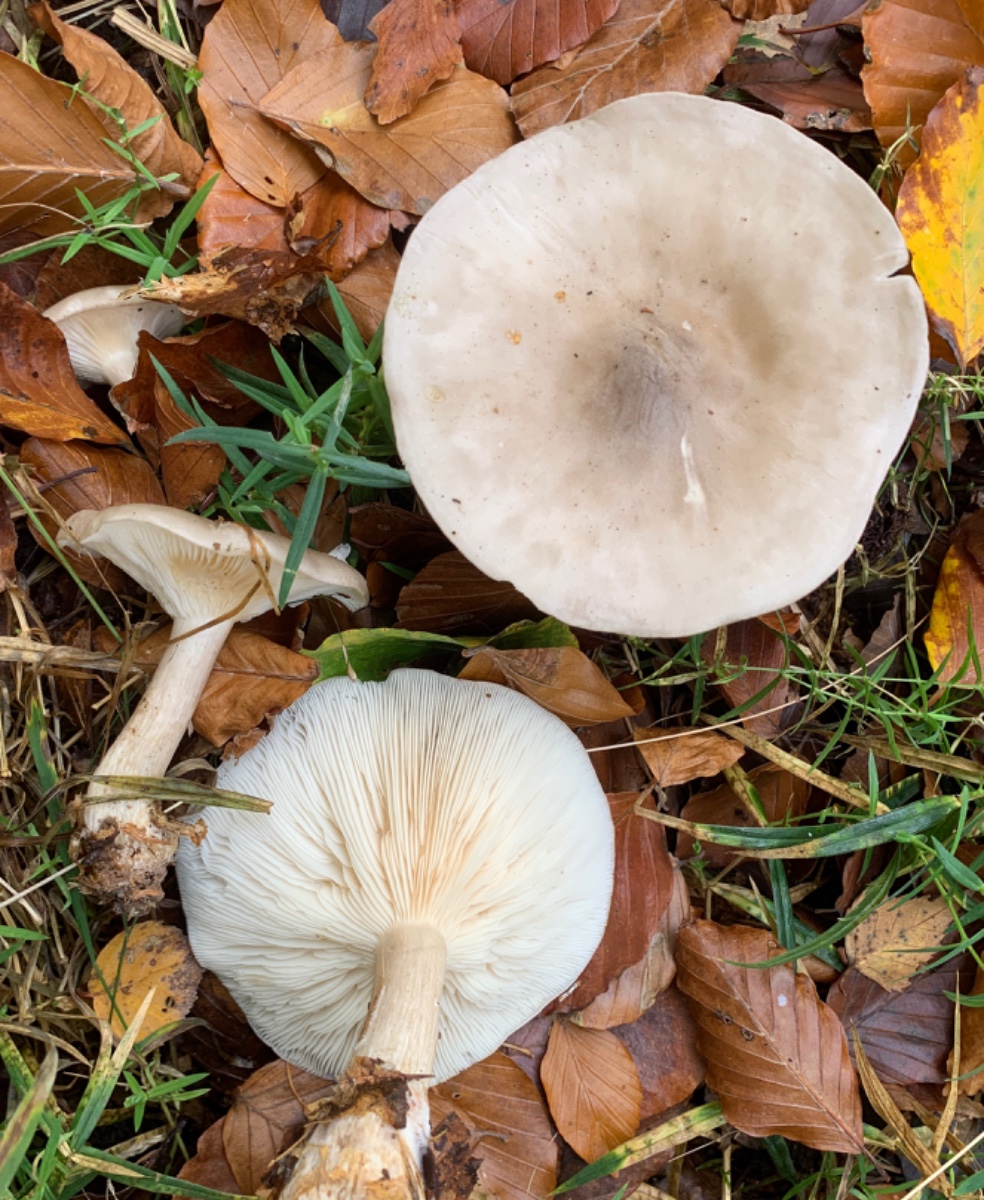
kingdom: Fungi
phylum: Basidiomycota
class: Agaricomycetes
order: Agaricales
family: Tricholomataceae
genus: Clitocybe
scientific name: Clitocybe nebularis
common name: tåge-tragthat
